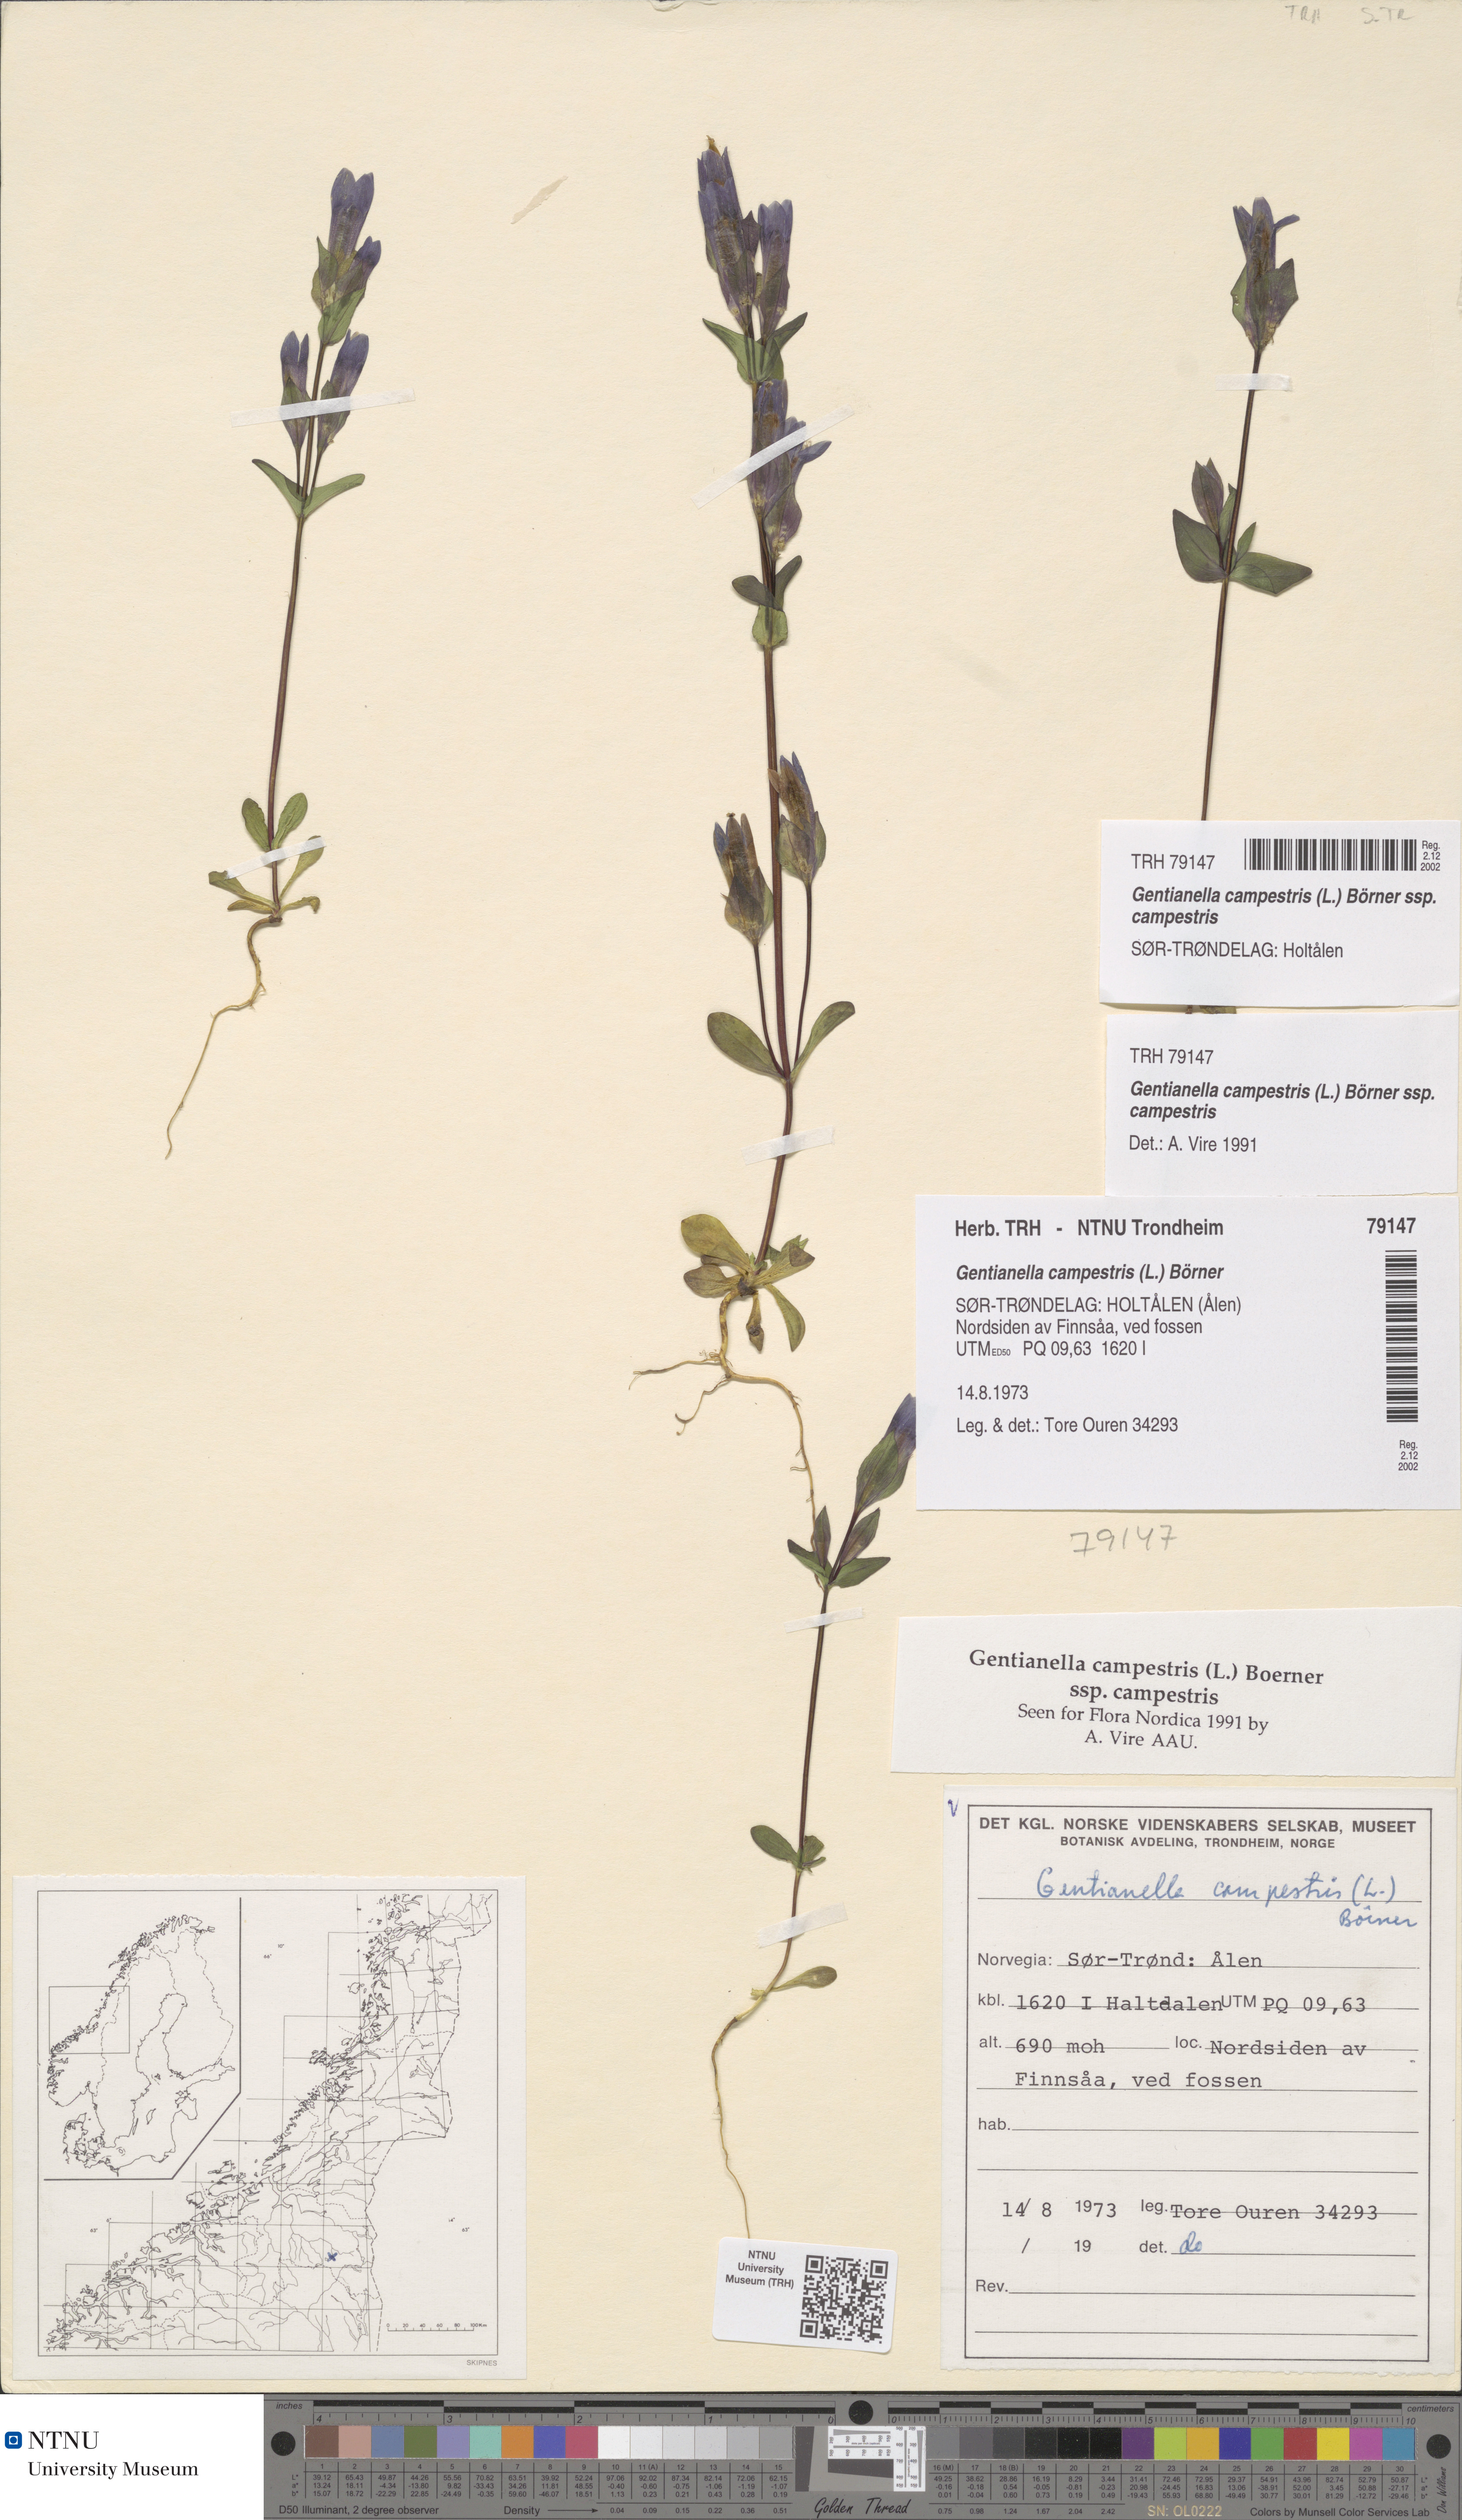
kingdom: Plantae
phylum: Tracheophyta
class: Magnoliopsida
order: Gentianales
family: Gentianaceae
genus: Gentianella
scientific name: Gentianella campestris
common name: Field gentian
